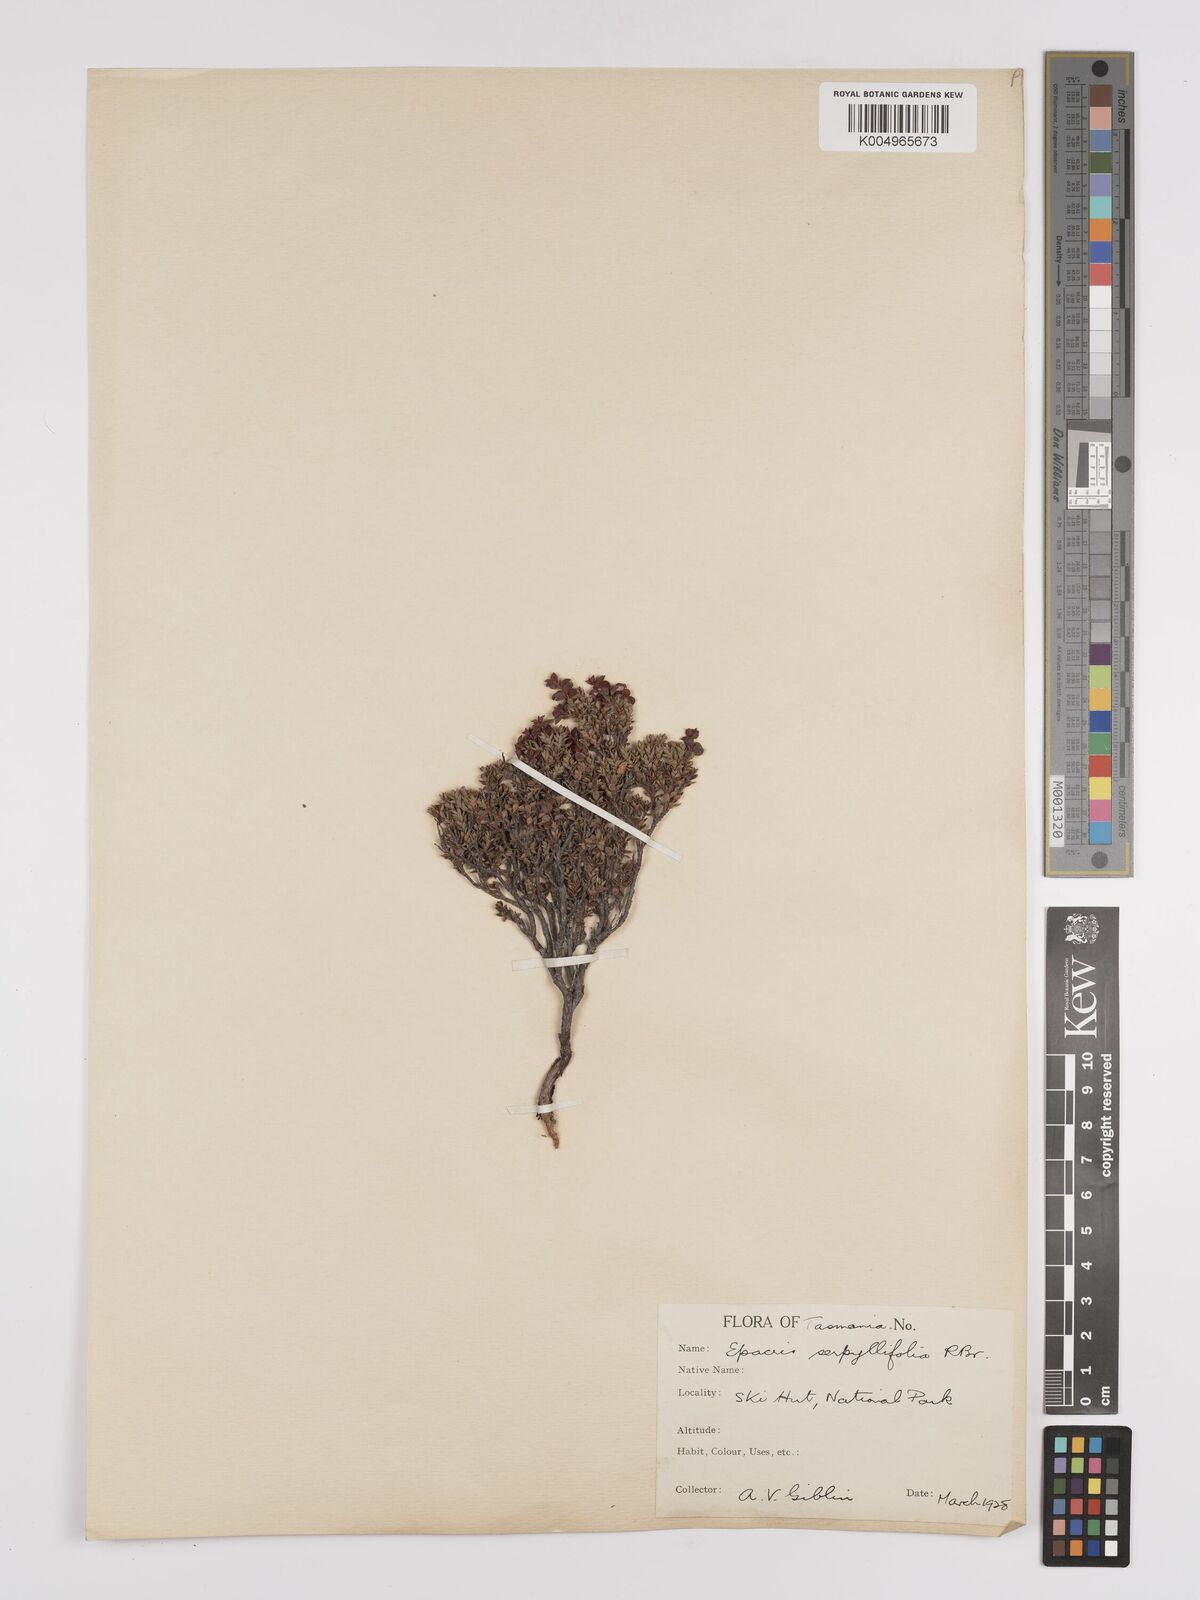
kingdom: Plantae
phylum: Tracheophyta
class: Magnoliopsida
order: Ericales
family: Ericaceae
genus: Epacris
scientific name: Epacris serpyllifolia
